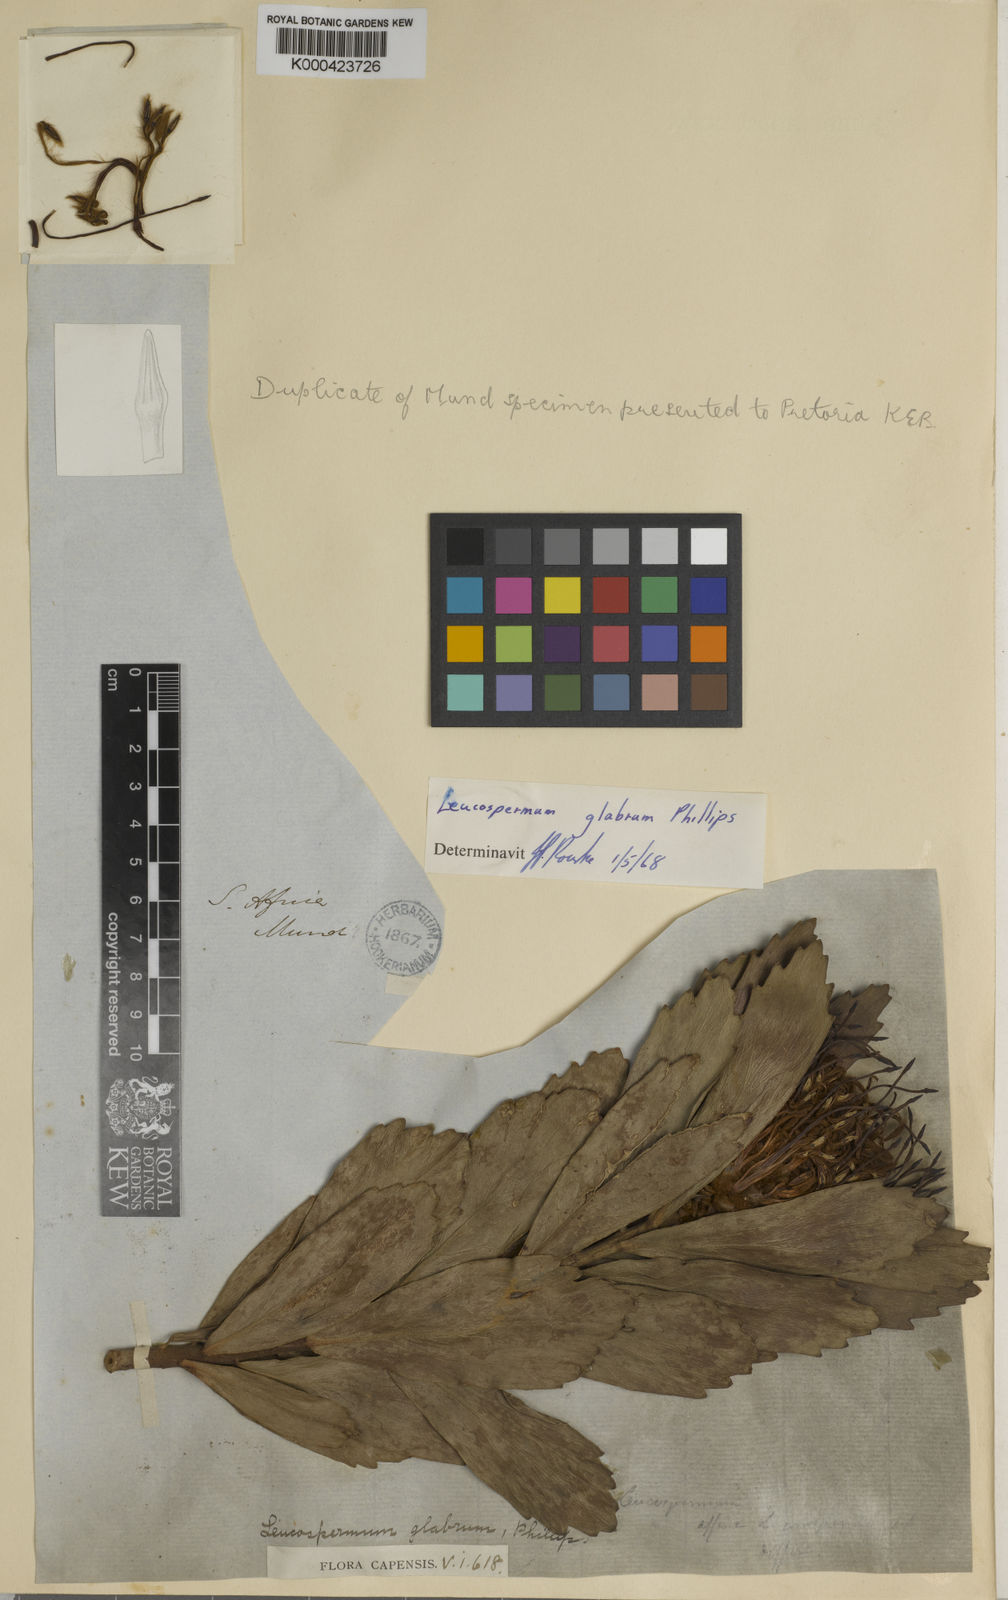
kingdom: Plantae
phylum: Tracheophyta
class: Magnoliopsida
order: Proteales
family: Proteaceae
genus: Leucospermum
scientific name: Leucospermum glabrum
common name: Outeniqua pincushion
